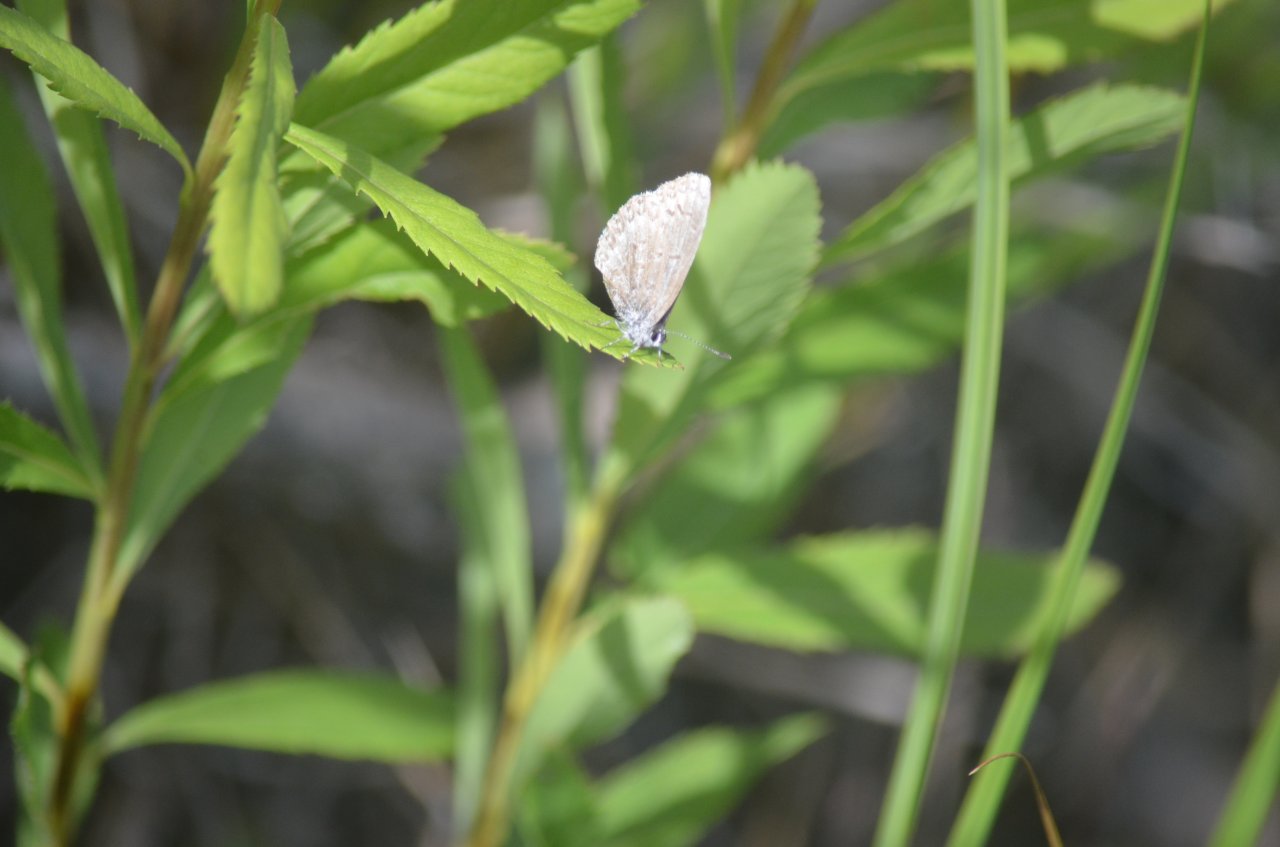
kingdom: Animalia
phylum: Arthropoda
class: Insecta
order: Lepidoptera
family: Lycaenidae
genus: Celastrina
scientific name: Celastrina lucia
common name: Northern Spring Azure
